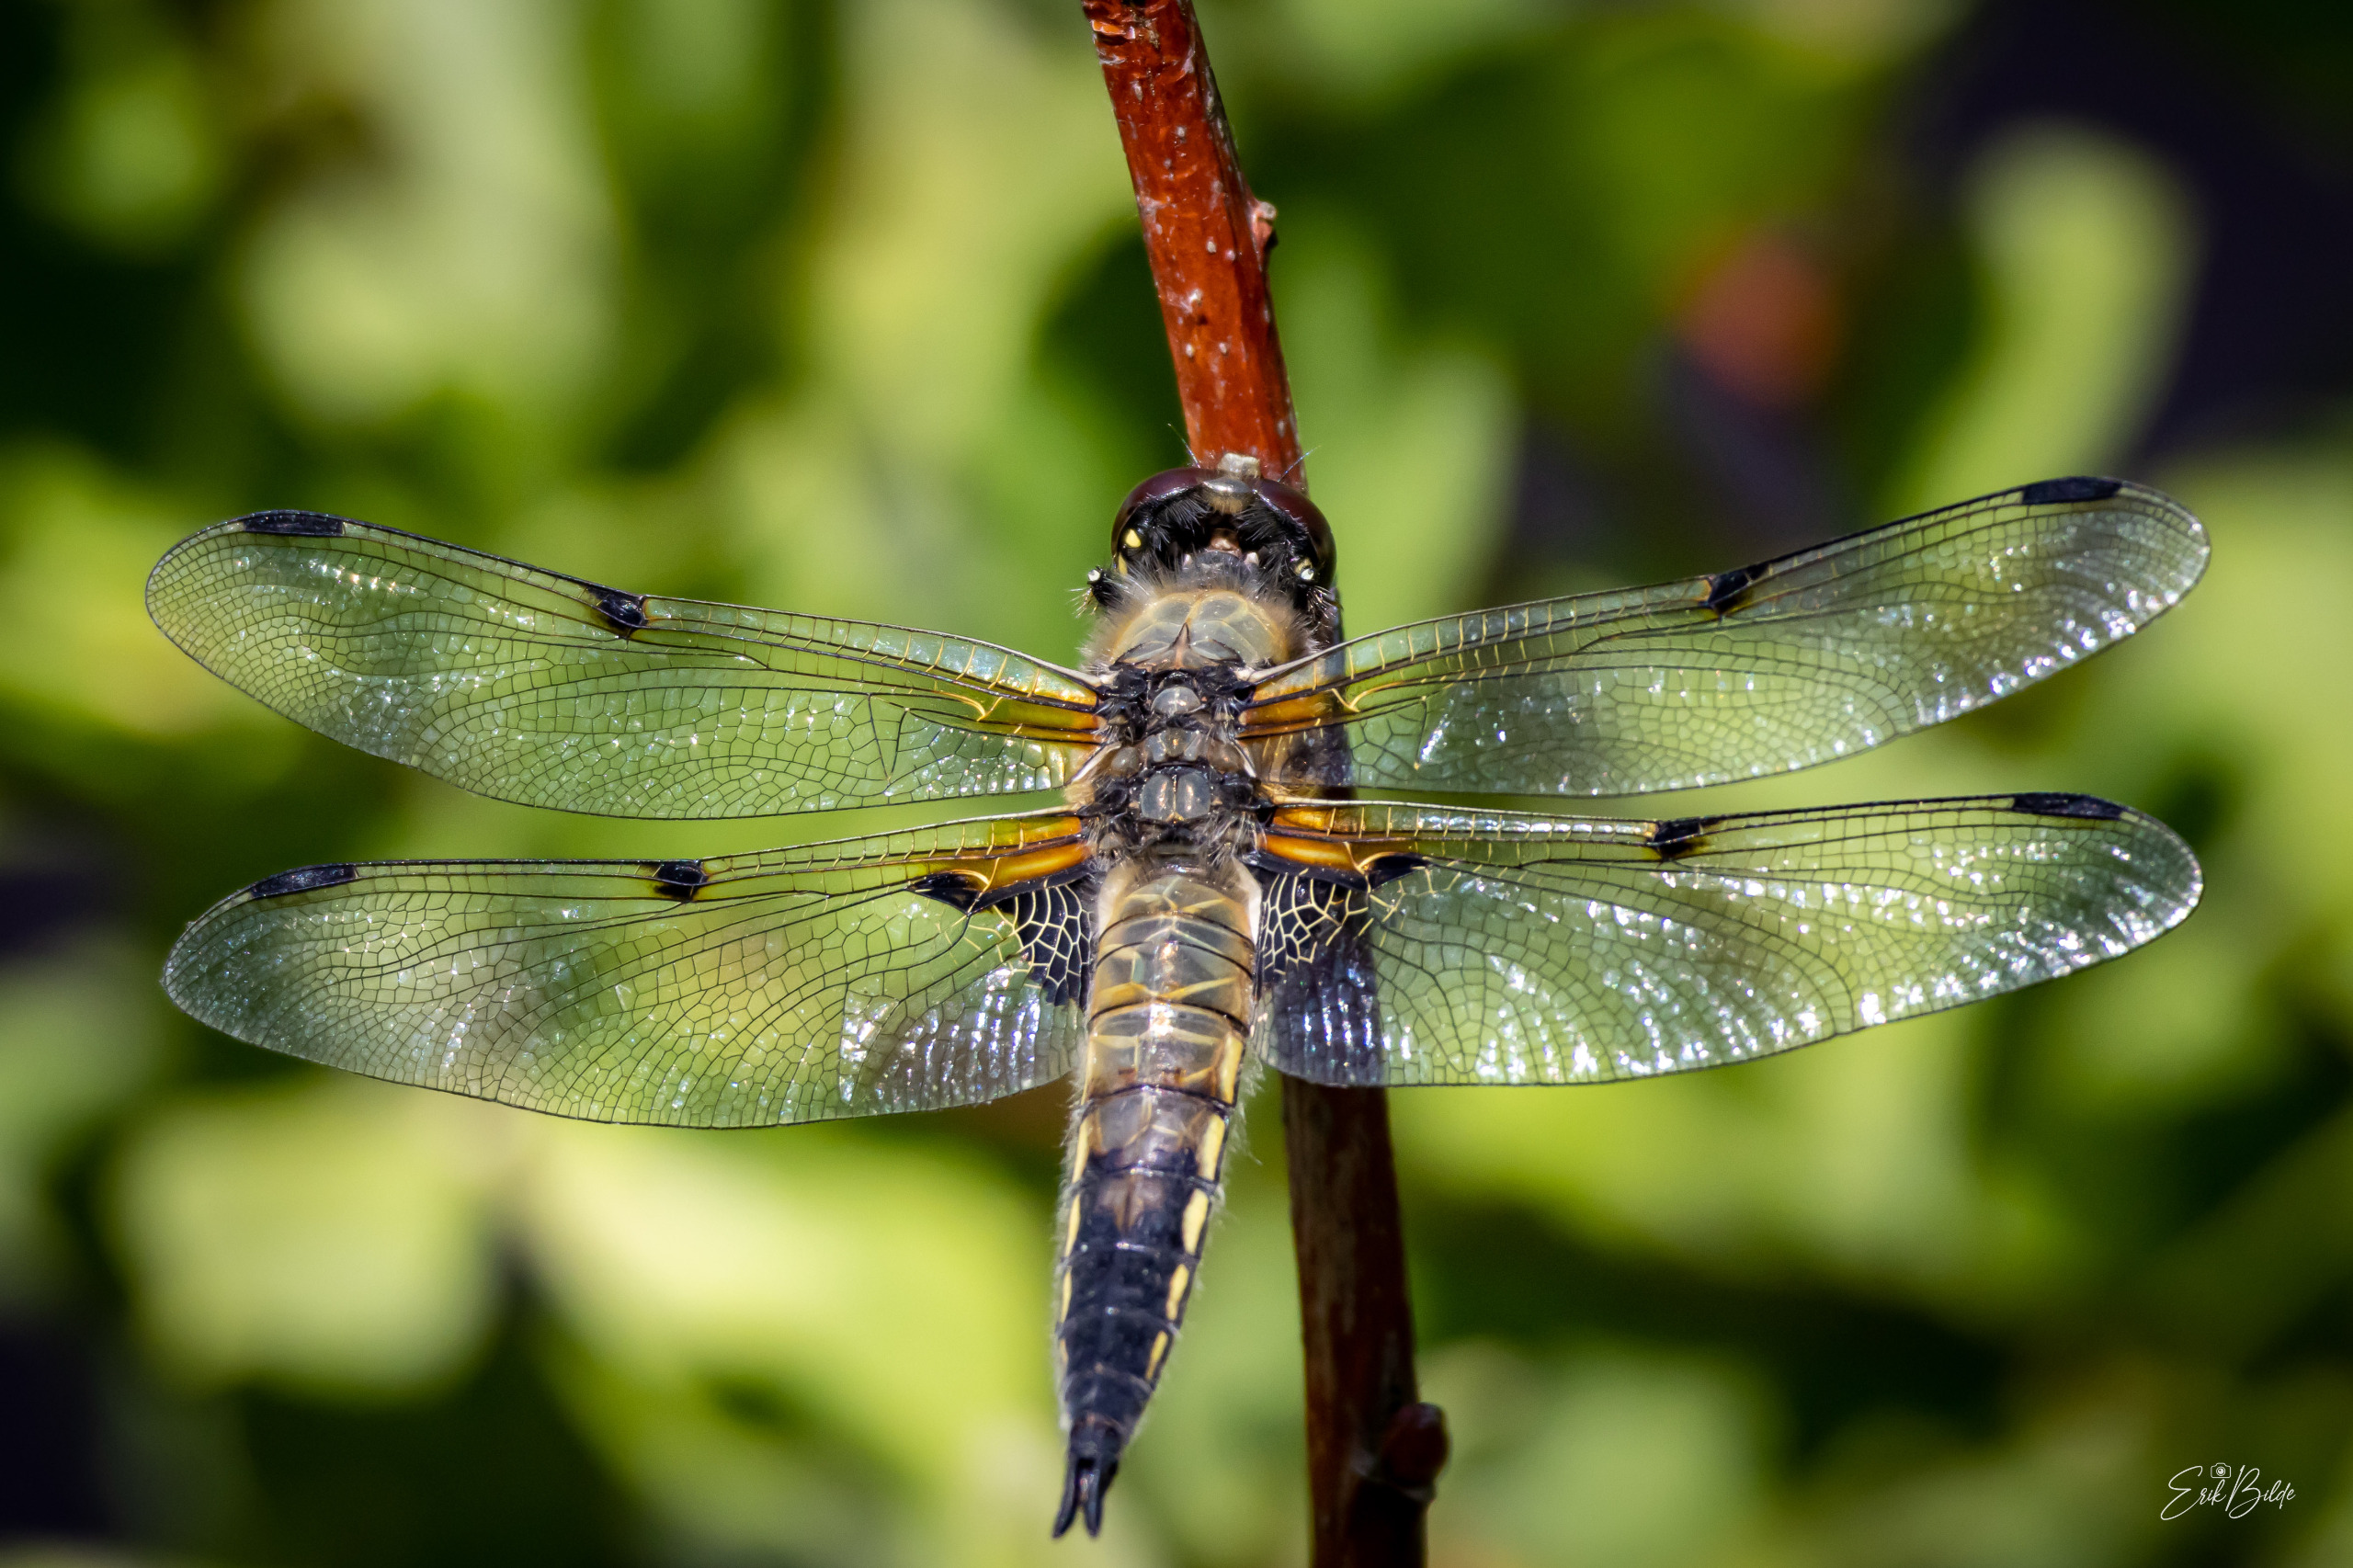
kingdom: Animalia
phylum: Arthropoda
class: Insecta
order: Odonata
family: Libellulidae
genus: Libellula
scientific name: Libellula quadrimaculata
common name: Fireplettet libel
